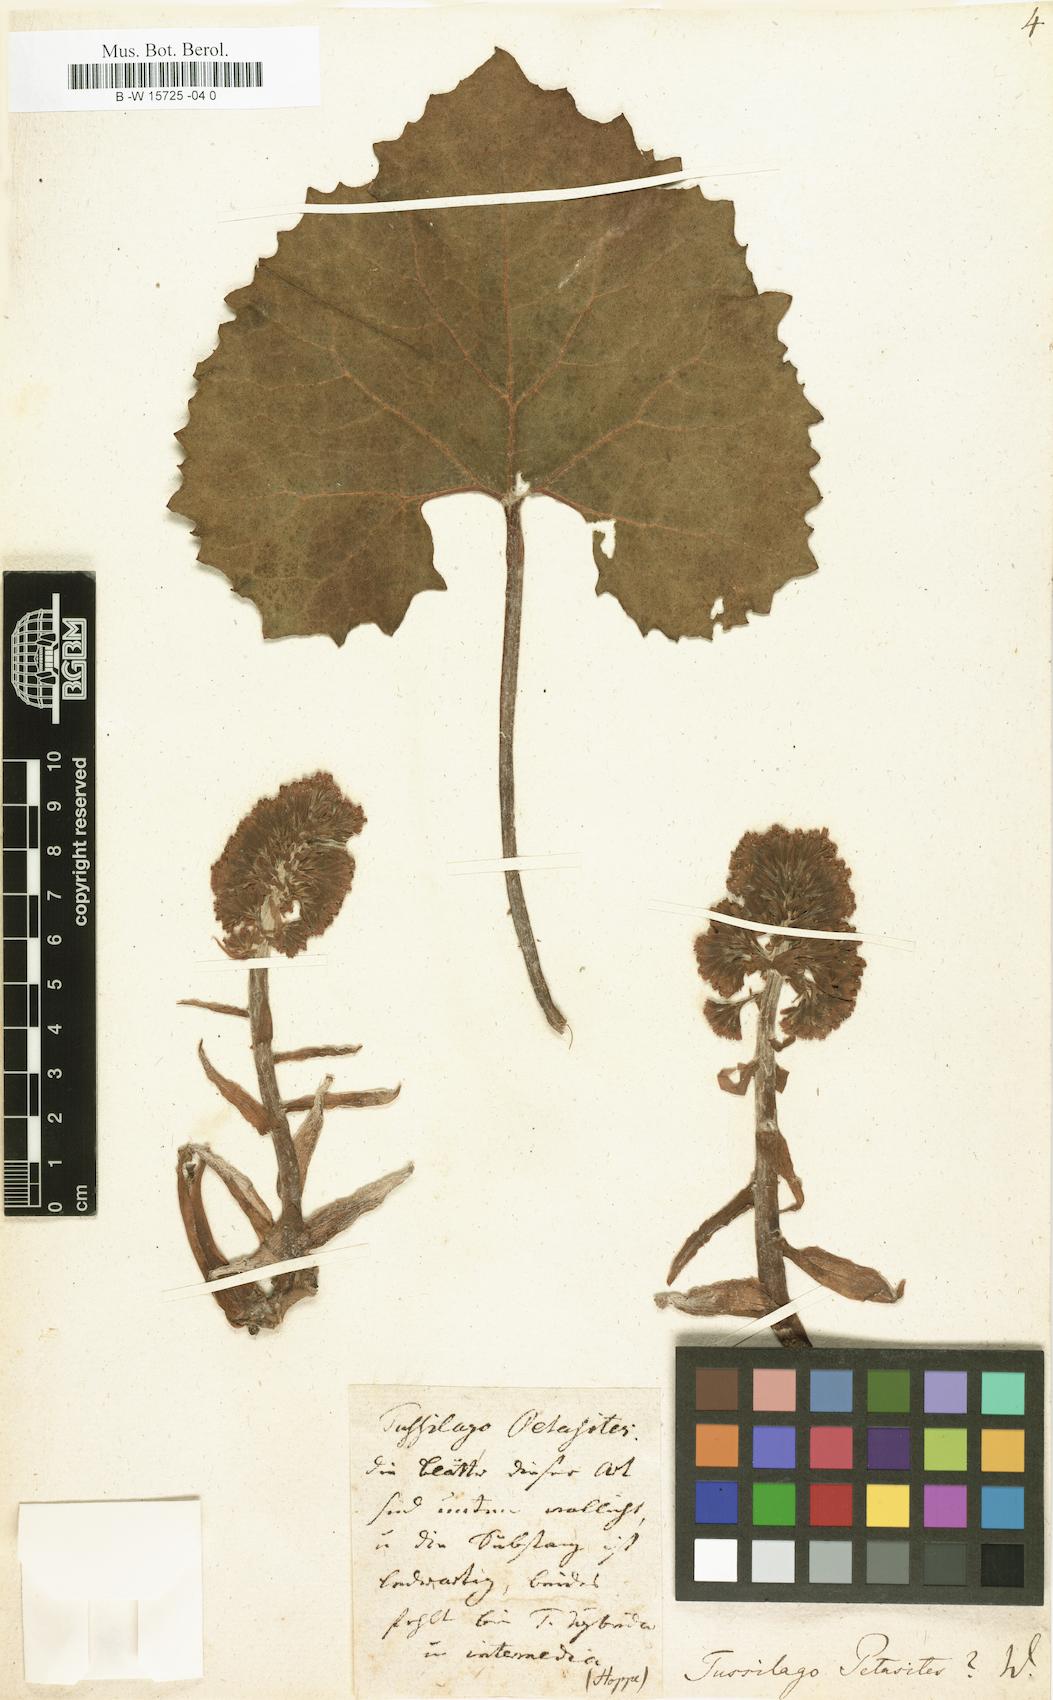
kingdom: Plantae
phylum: Tracheophyta
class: Magnoliopsida
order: Asterales
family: Asteraceae
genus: Petasites
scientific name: Petasites hybridus
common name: Butterbur
